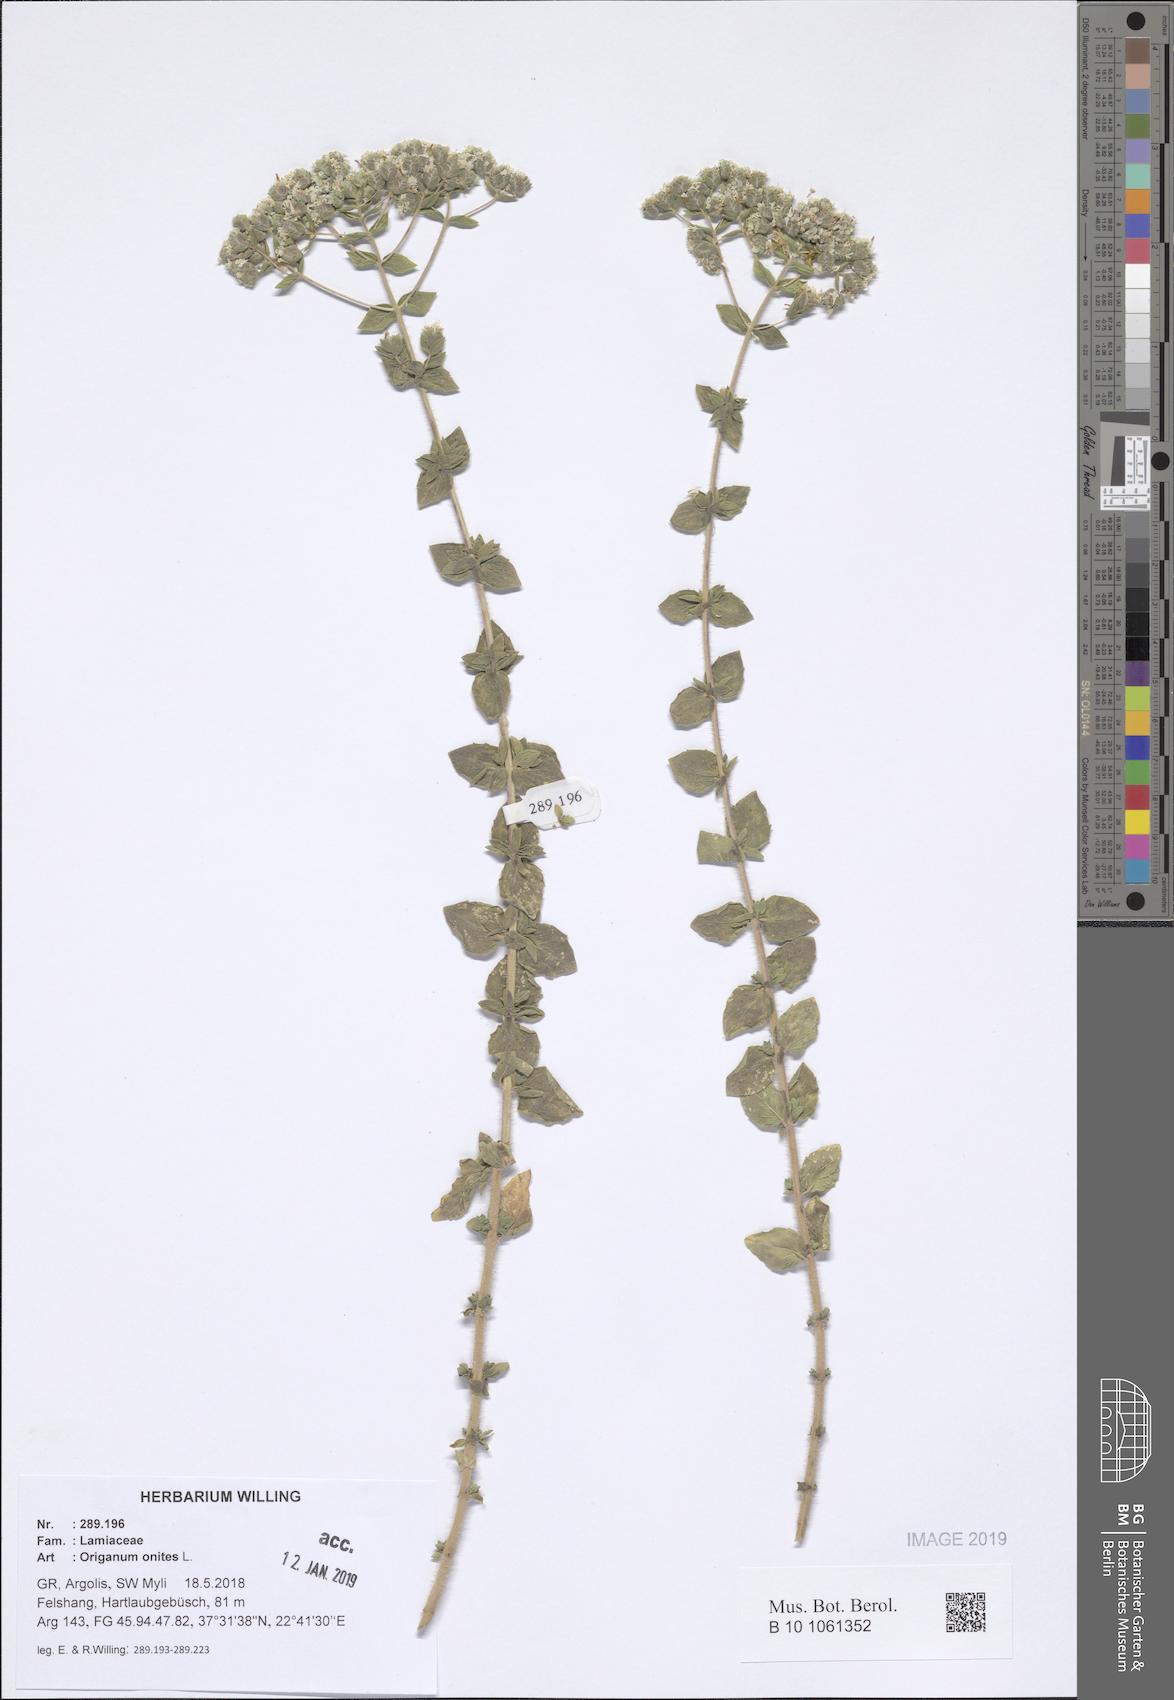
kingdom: Plantae
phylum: Tracheophyta
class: Magnoliopsida
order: Lamiales
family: Lamiaceae
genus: Origanum
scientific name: Origanum onites
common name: Turkish oregano
